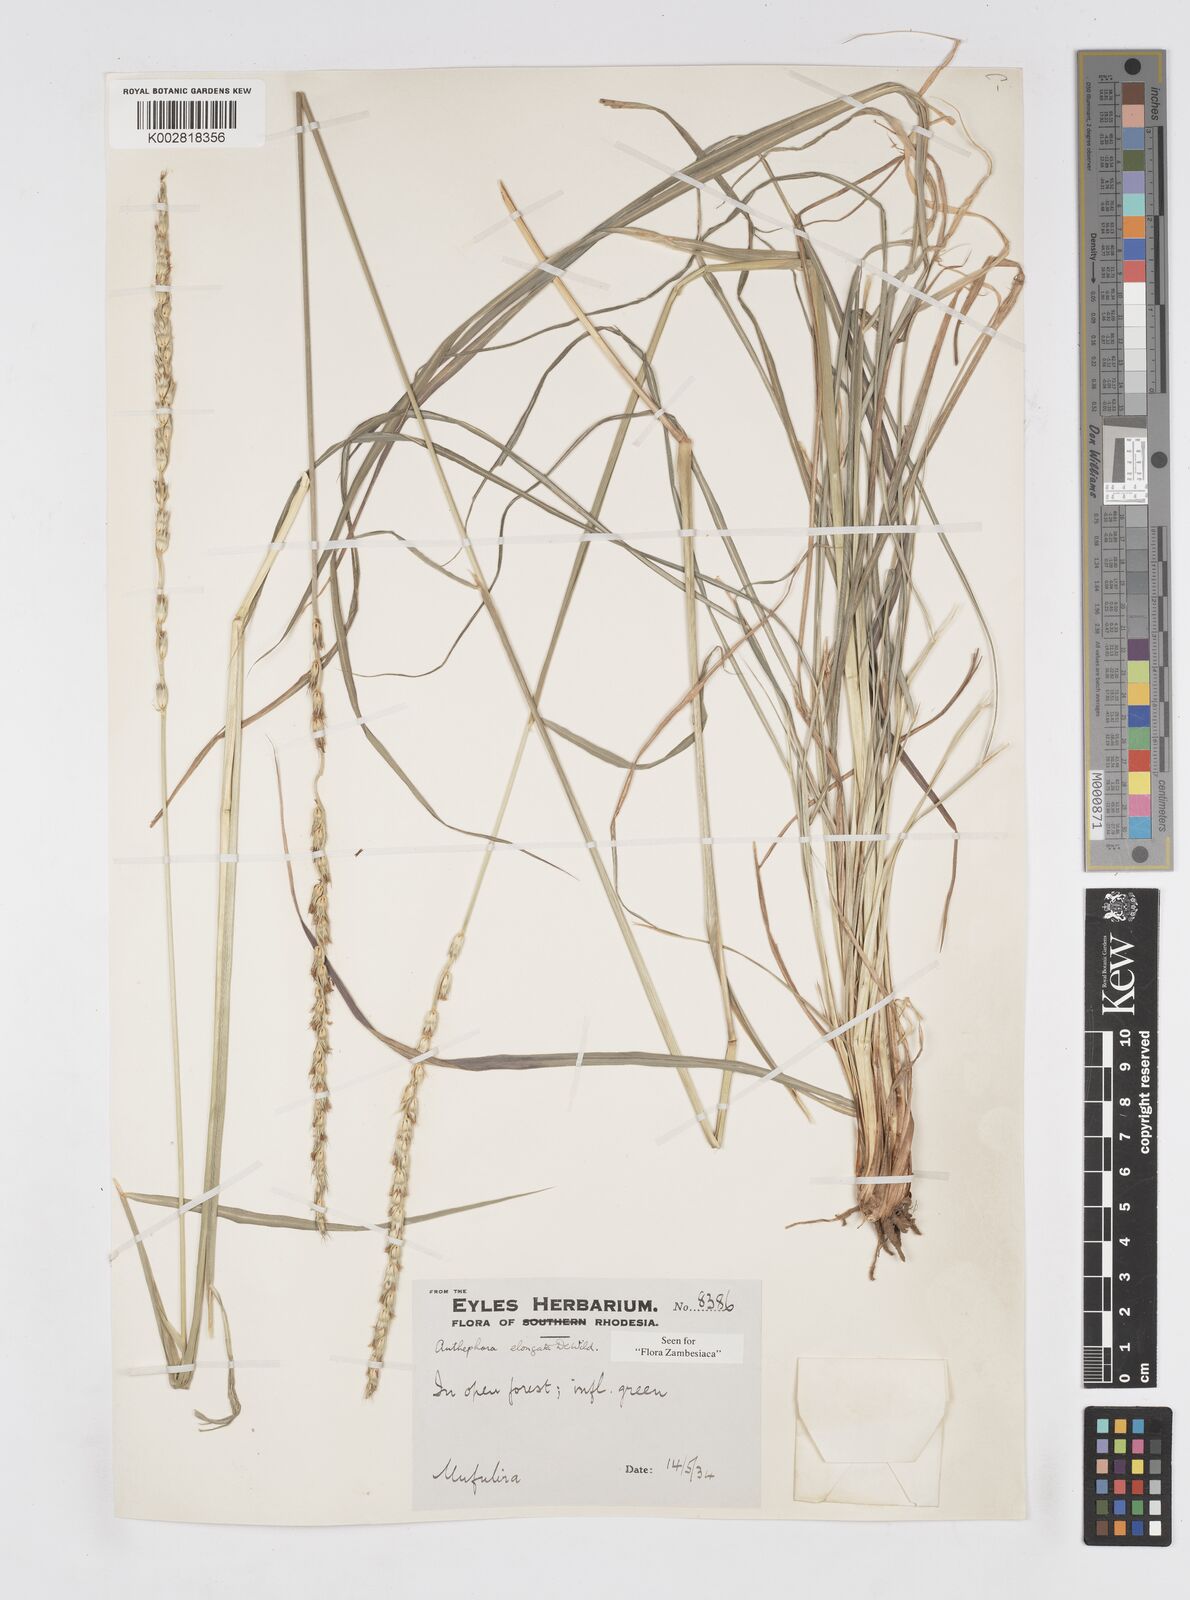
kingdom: Plantae
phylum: Tracheophyta
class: Liliopsida
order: Poales
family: Poaceae
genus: Anthephora
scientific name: Anthephora elongata
